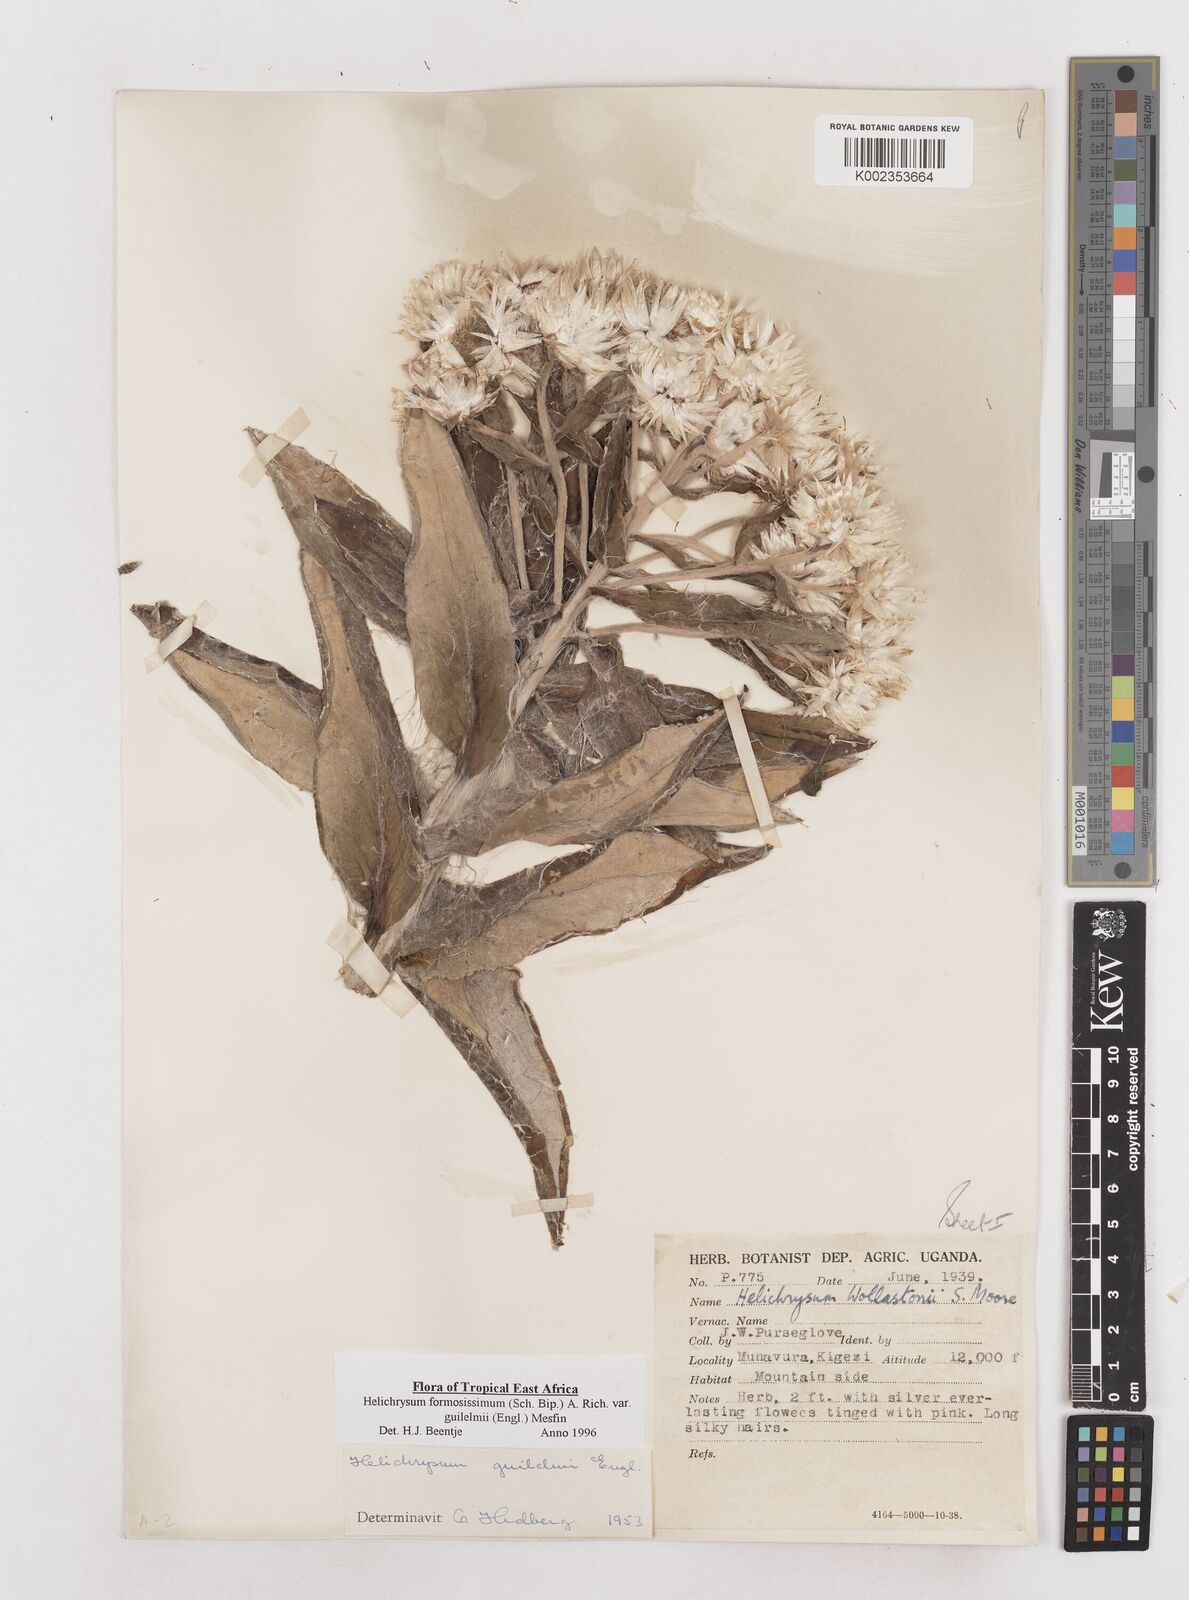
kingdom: Plantae
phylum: Tracheophyta
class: Magnoliopsida
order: Asterales
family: Asteraceae
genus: Helichrysum
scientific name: Helichrysum formosissimum
